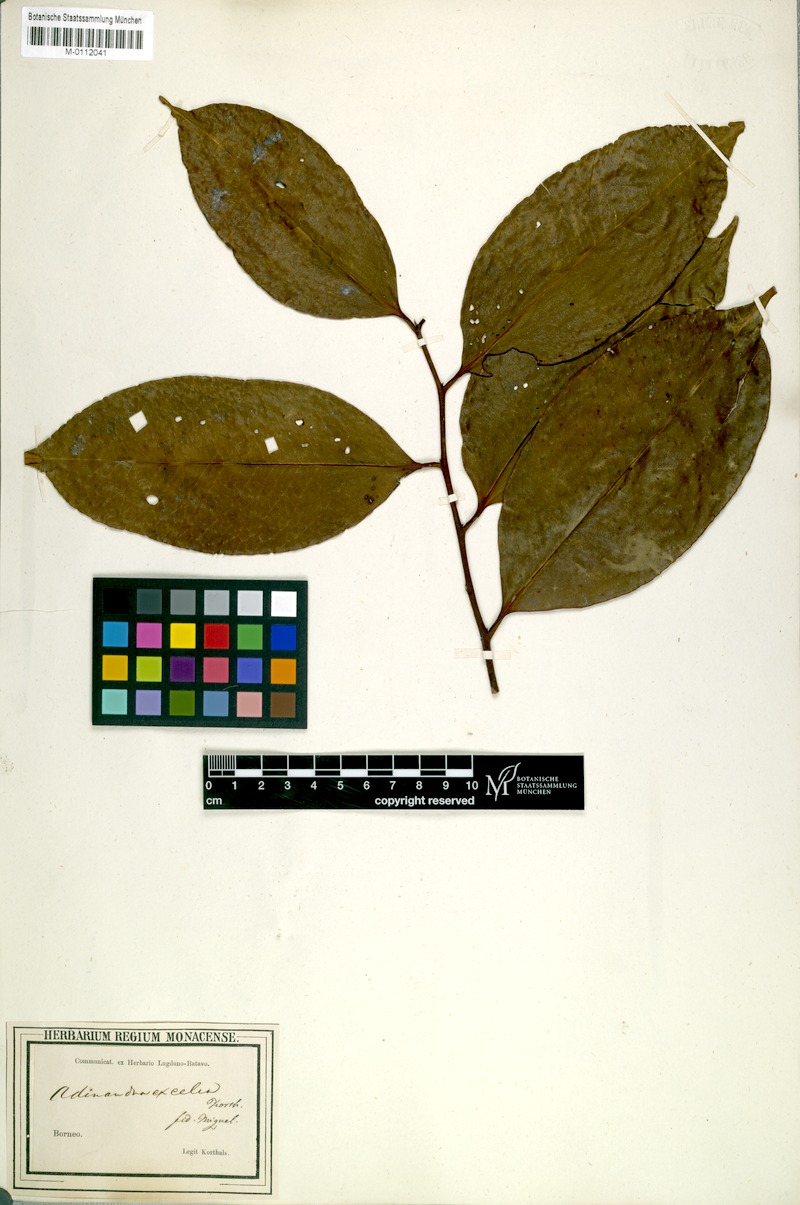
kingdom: Plantae
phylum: Tracheophyta
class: Magnoliopsida
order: Ericales
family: Pentaphylacaceae
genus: Adinandra
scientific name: Adinandra excelsa
